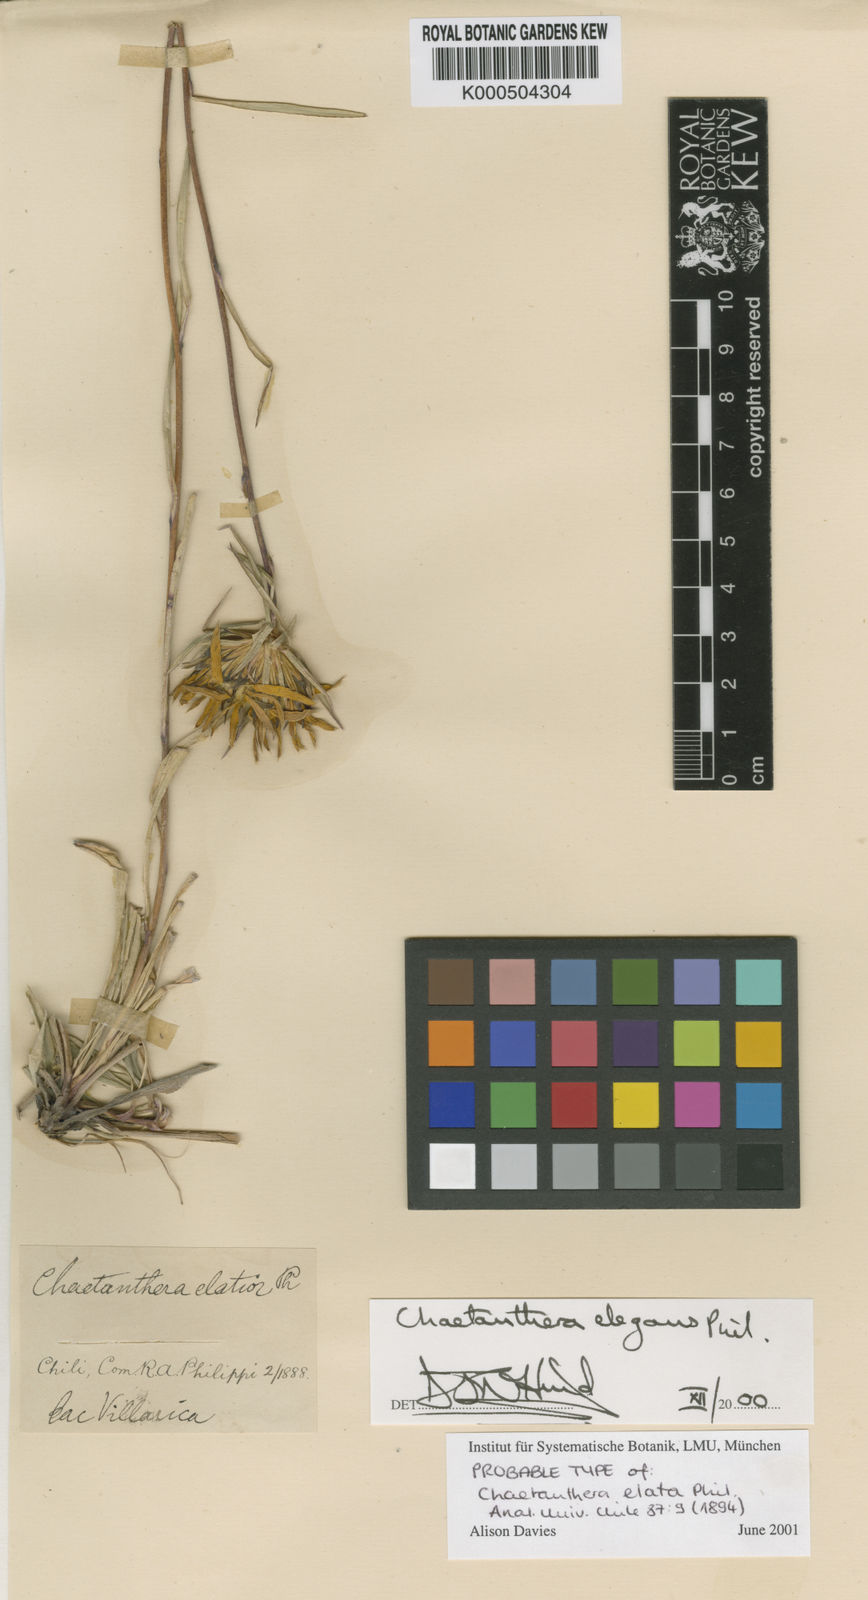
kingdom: Plantae
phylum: Tracheophyta
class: Magnoliopsida
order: Asterales
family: Asteraceae
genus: Chaetanthera
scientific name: Chaetanthera elegans
